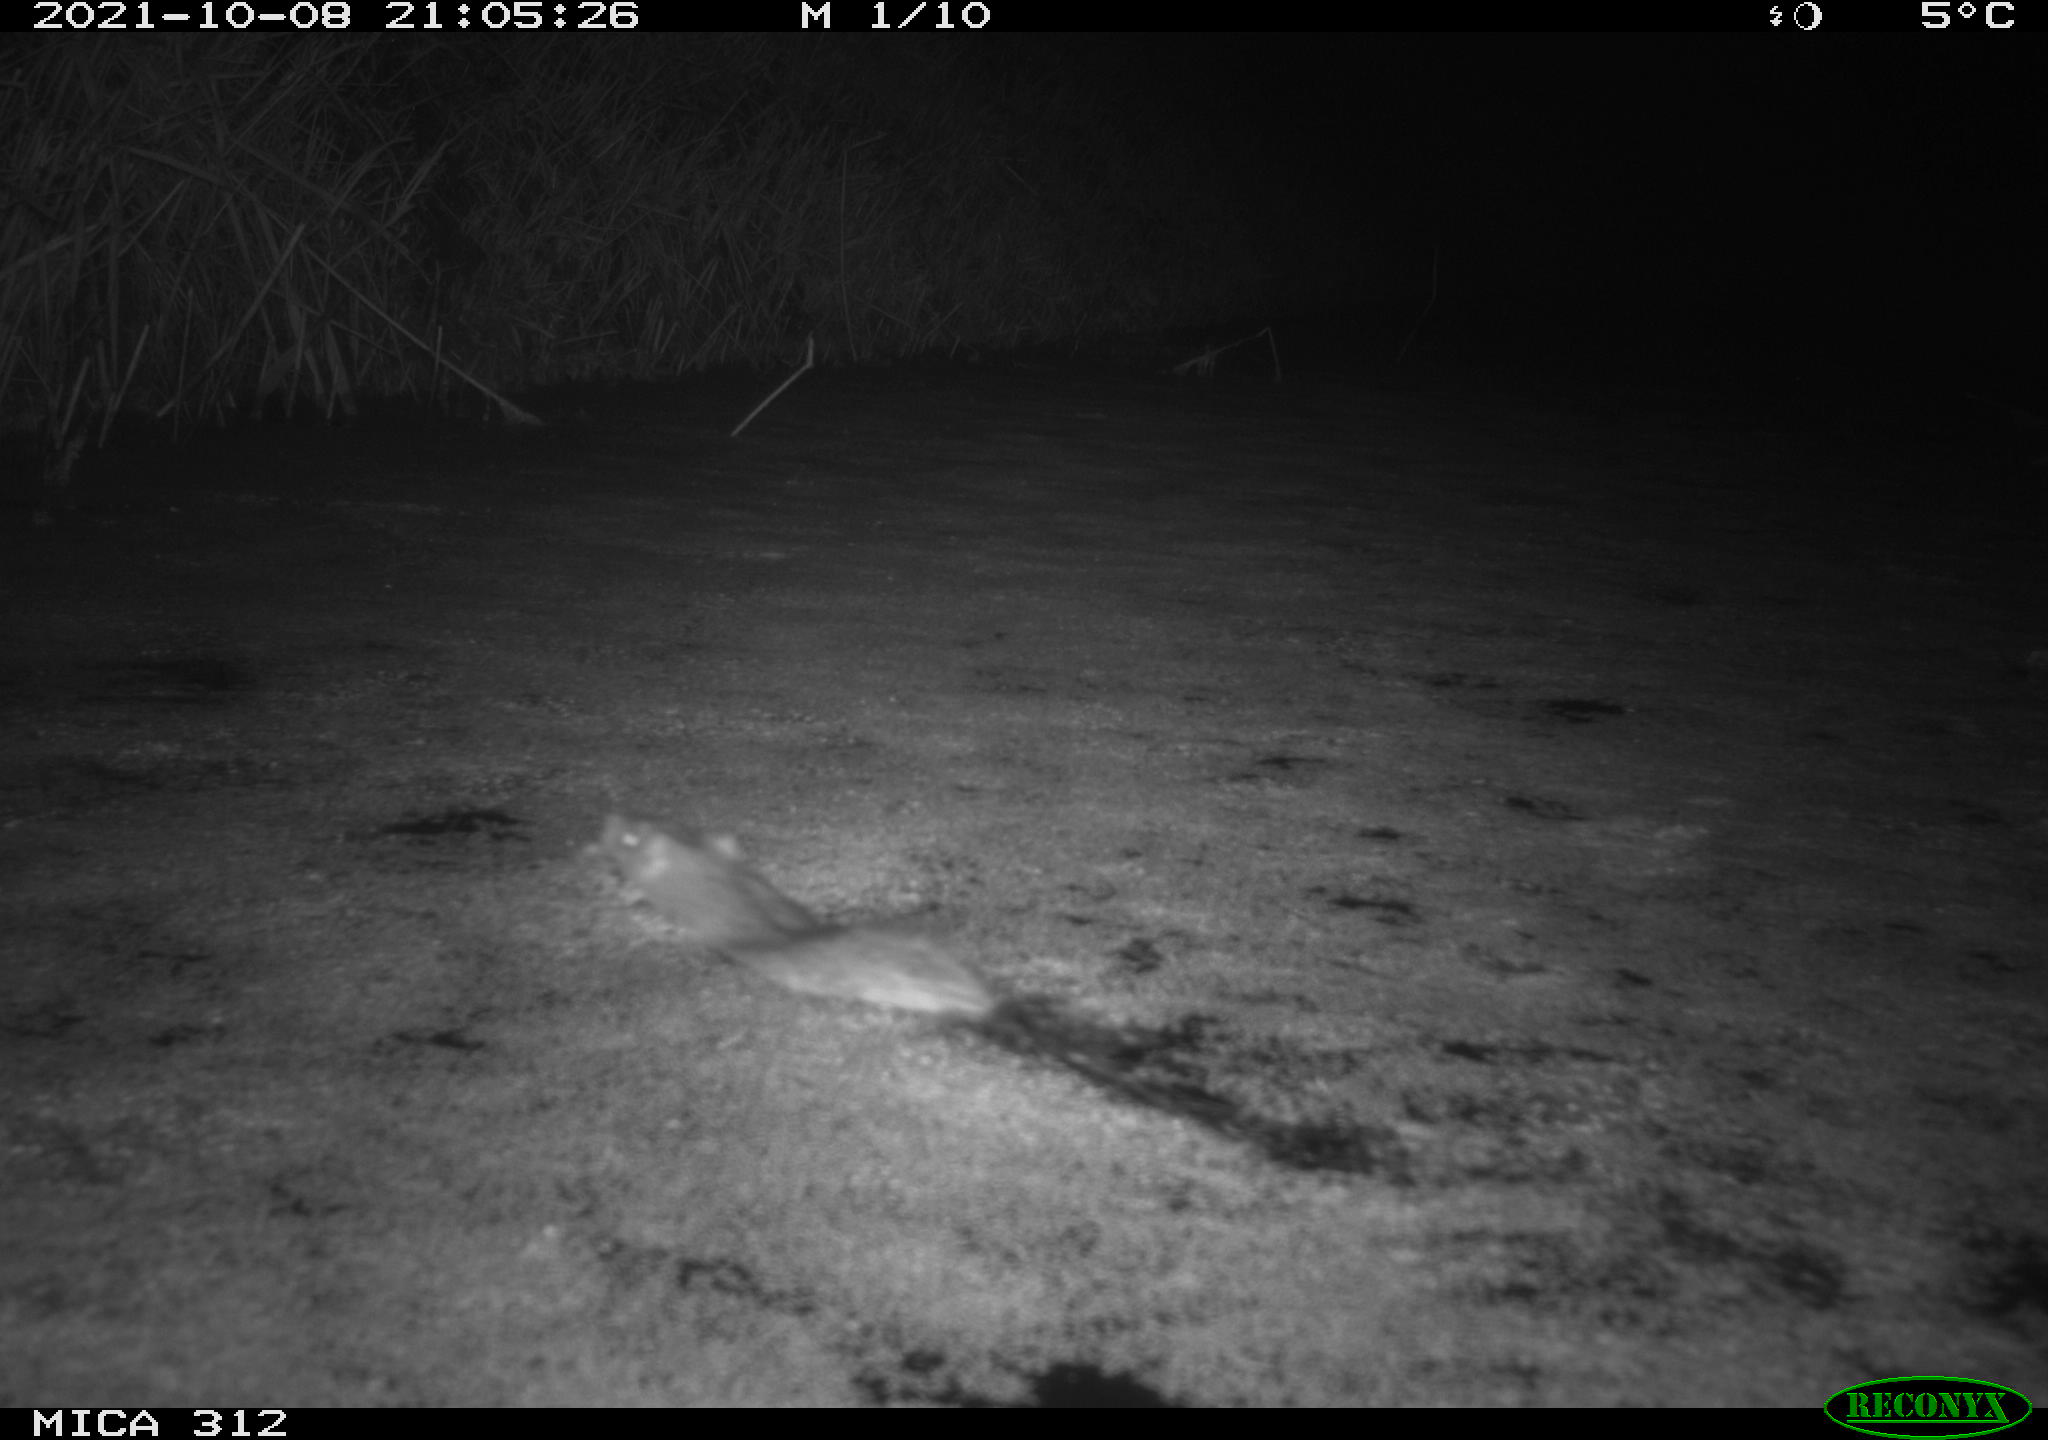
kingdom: Animalia
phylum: Chordata
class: Mammalia
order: Rodentia
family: Muridae
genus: Rattus
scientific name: Rattus norvegicus
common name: Brown rat
